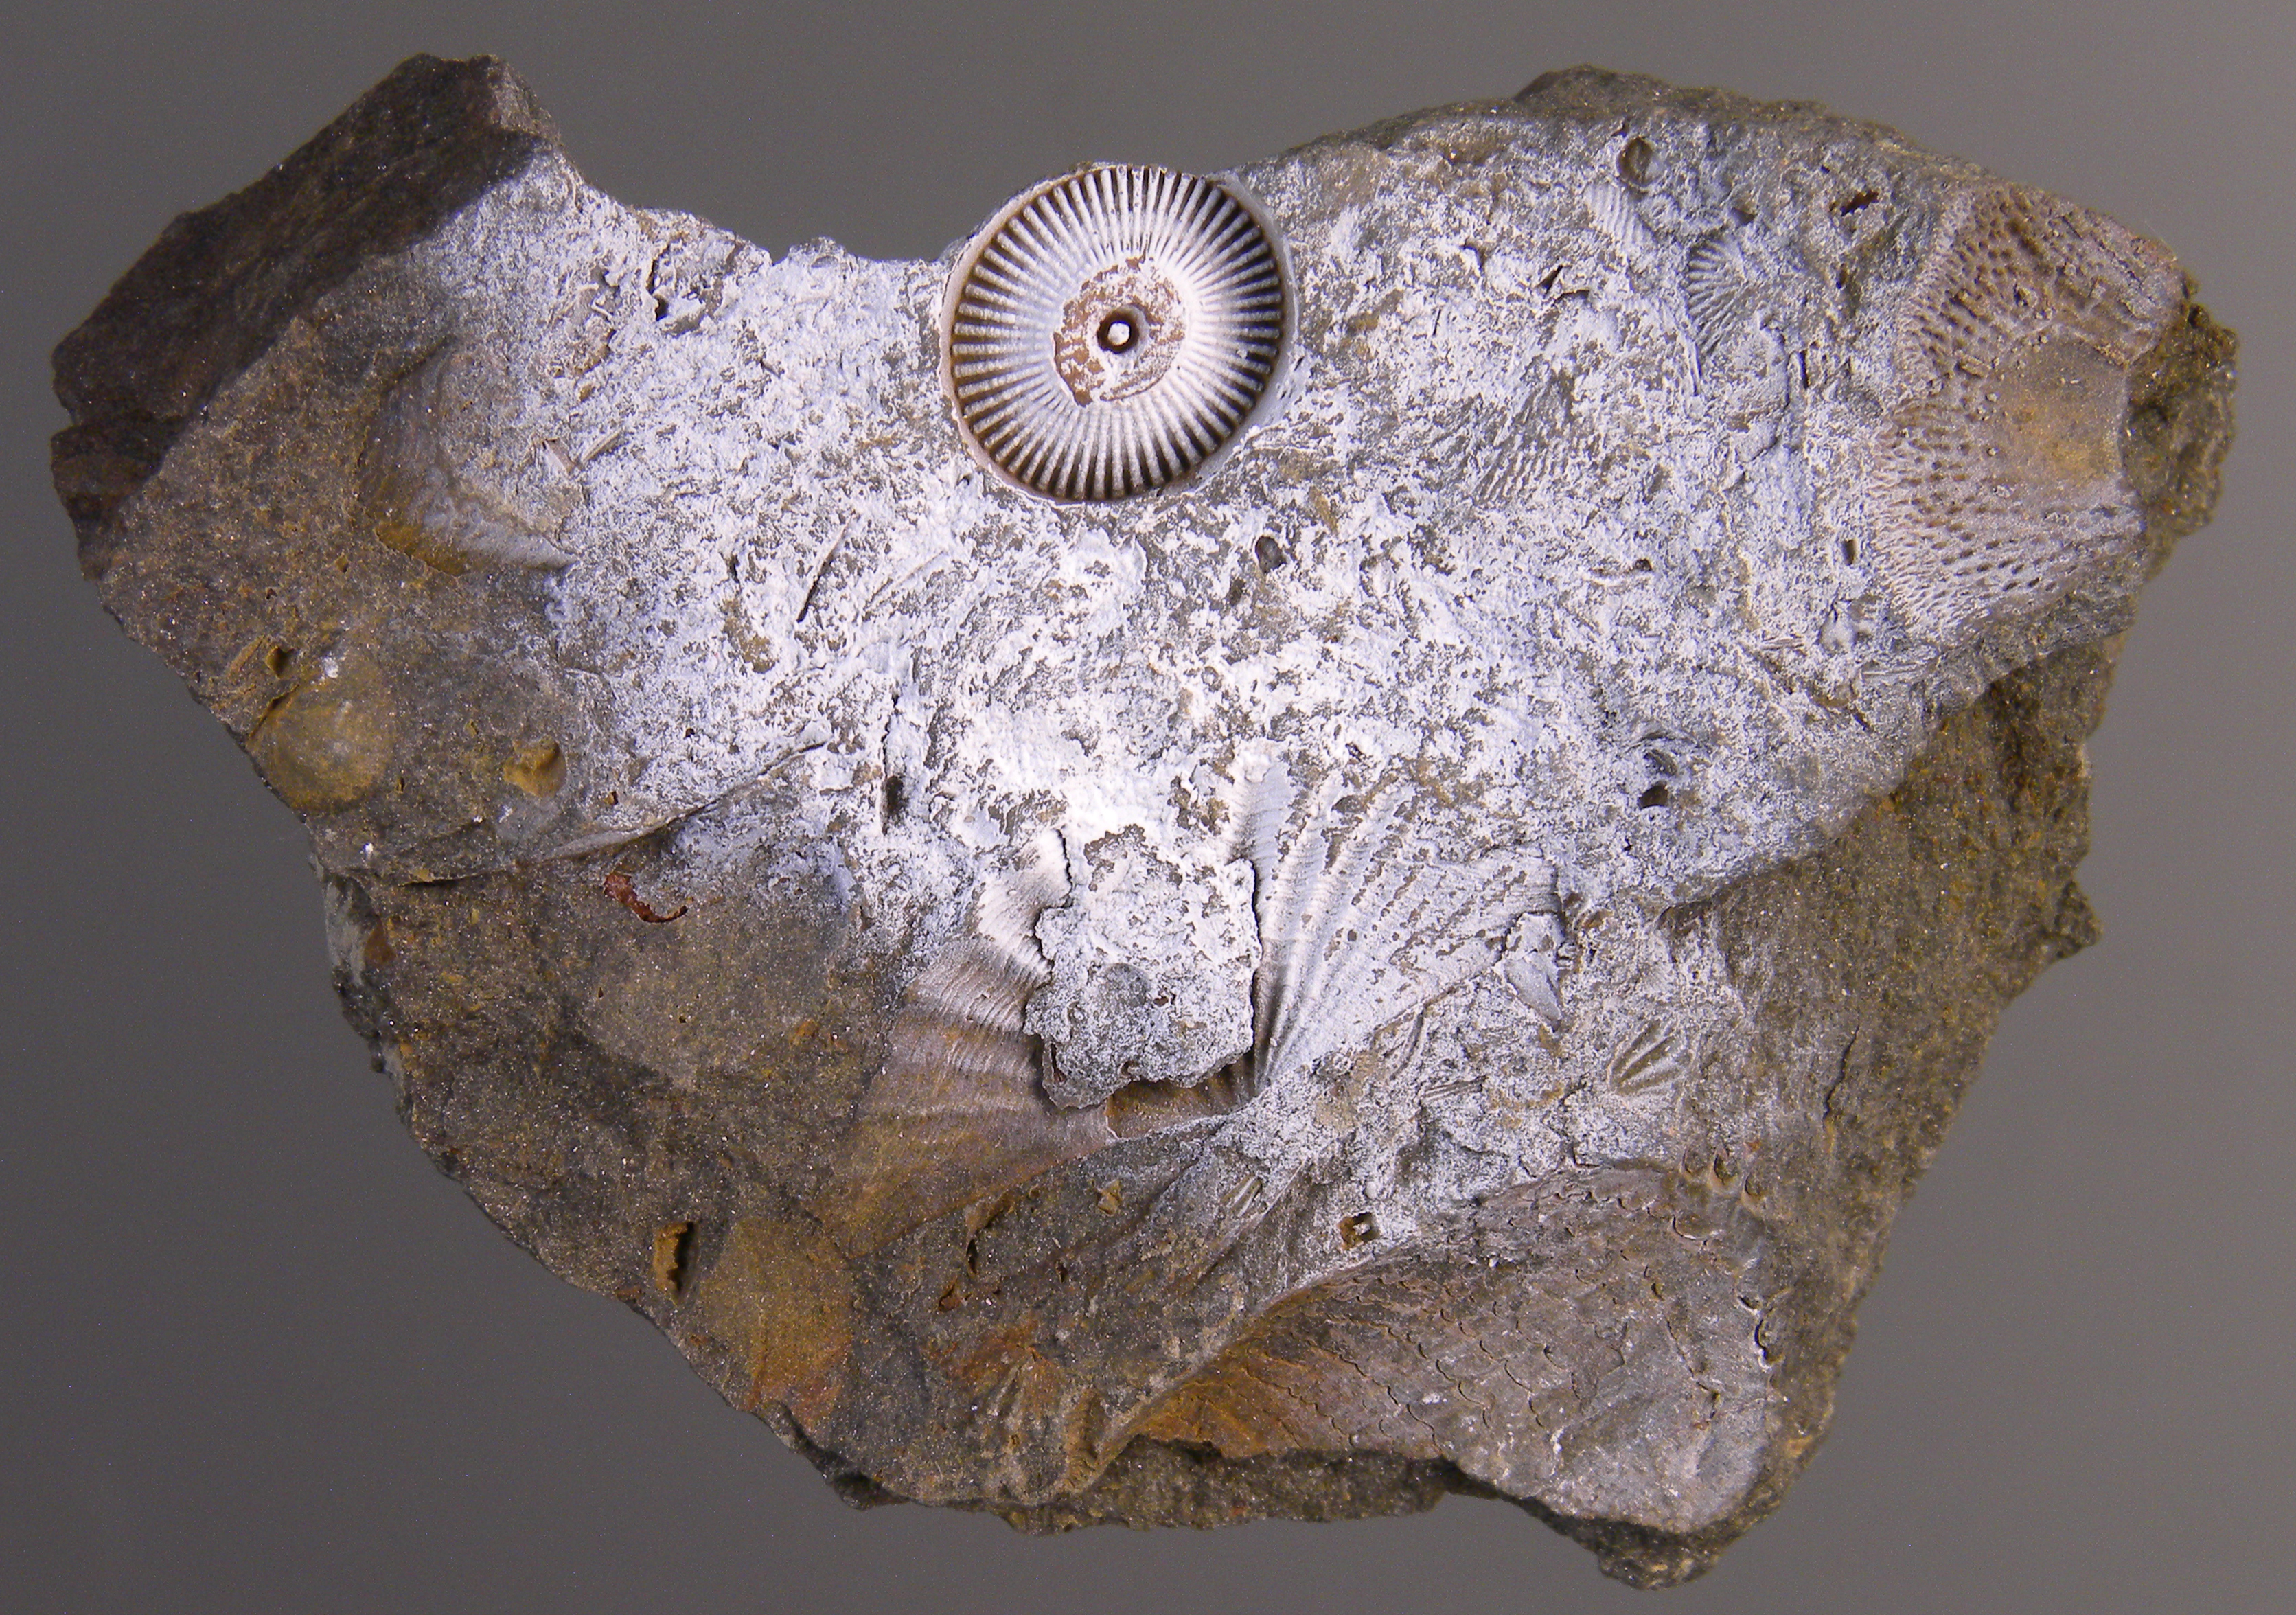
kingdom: Animalia
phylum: Echinodermata
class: Crinoidea
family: Melocrinitidae
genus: Ctenocrinus
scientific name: Ctenocrinus
